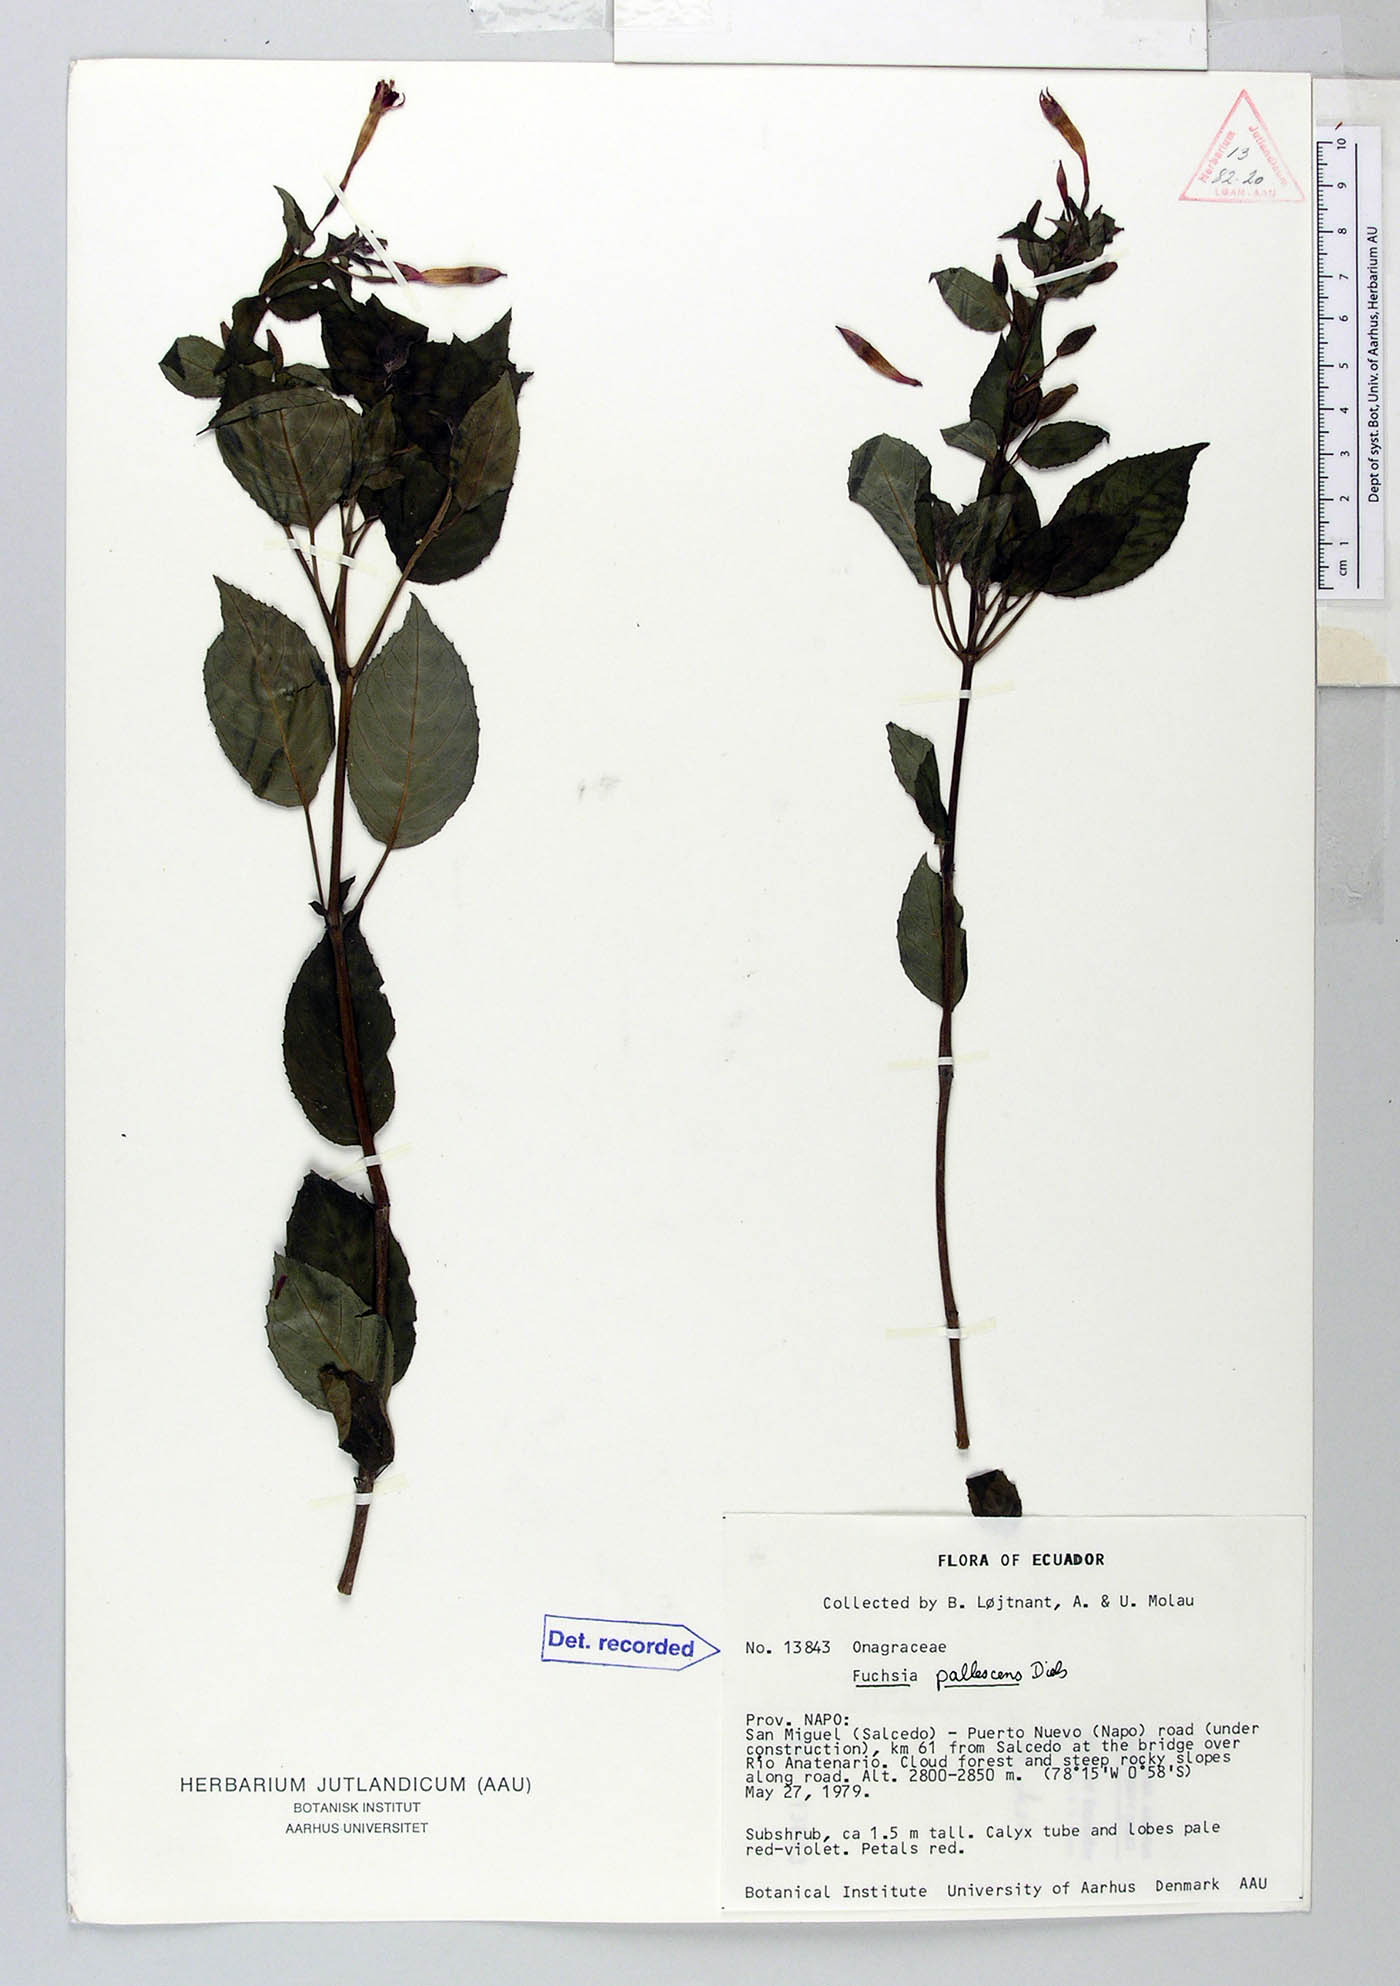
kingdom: Plantae
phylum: Tracheophyta
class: Magnoliopsida
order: Myrtales
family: Onagraceae
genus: Fuchsia
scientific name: Fuchsia pallescens
